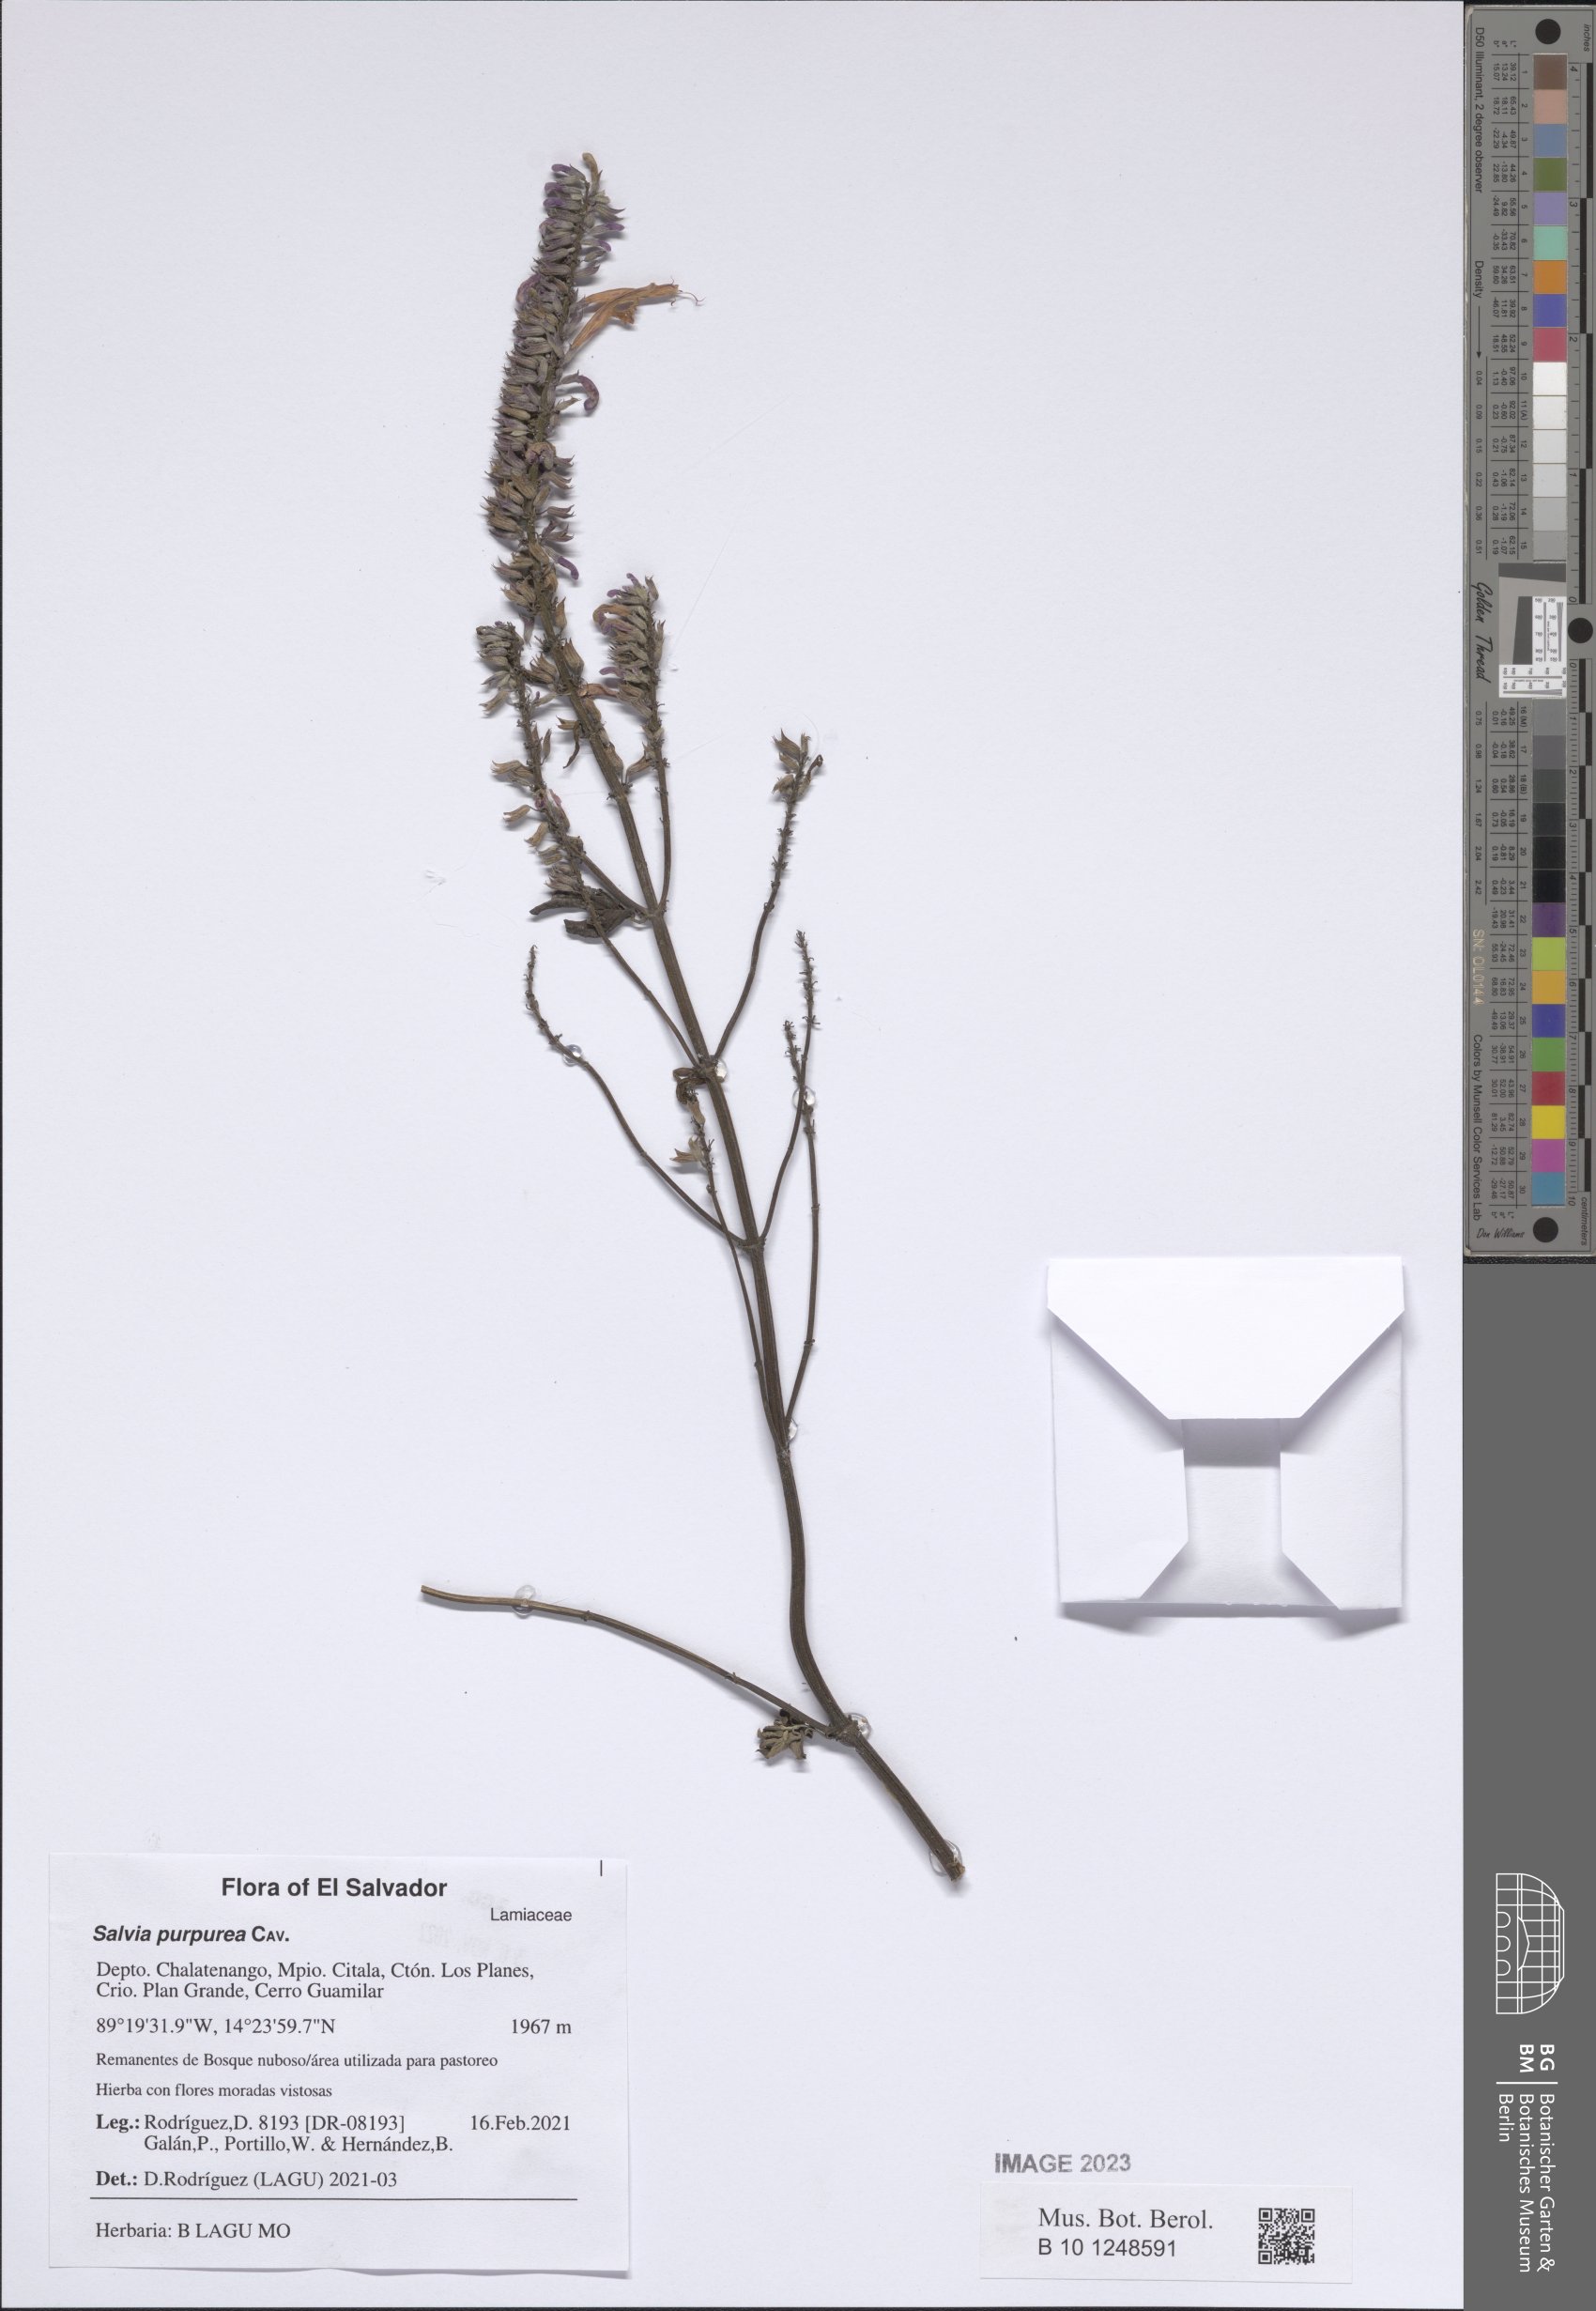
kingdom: Plantae
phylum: Tracheophyta
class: Magnoliopsida
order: Lamiales
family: Lamiaceae
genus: Salvia
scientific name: Salvia purpurea
